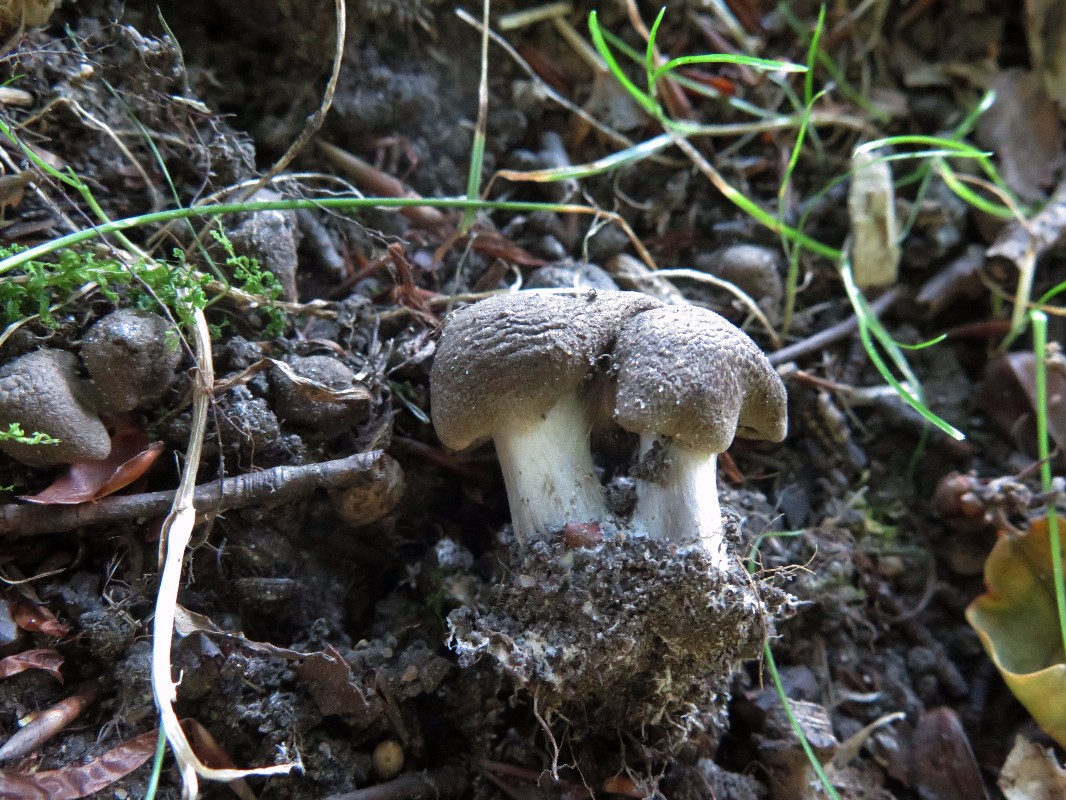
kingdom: Fungi
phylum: Basidiomycota
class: Agaricomycetes
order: Agaricales
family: Tricholomataceae
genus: Tricholoma
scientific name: Tricholoma scalpturatum
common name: gulplettet ridderhat
